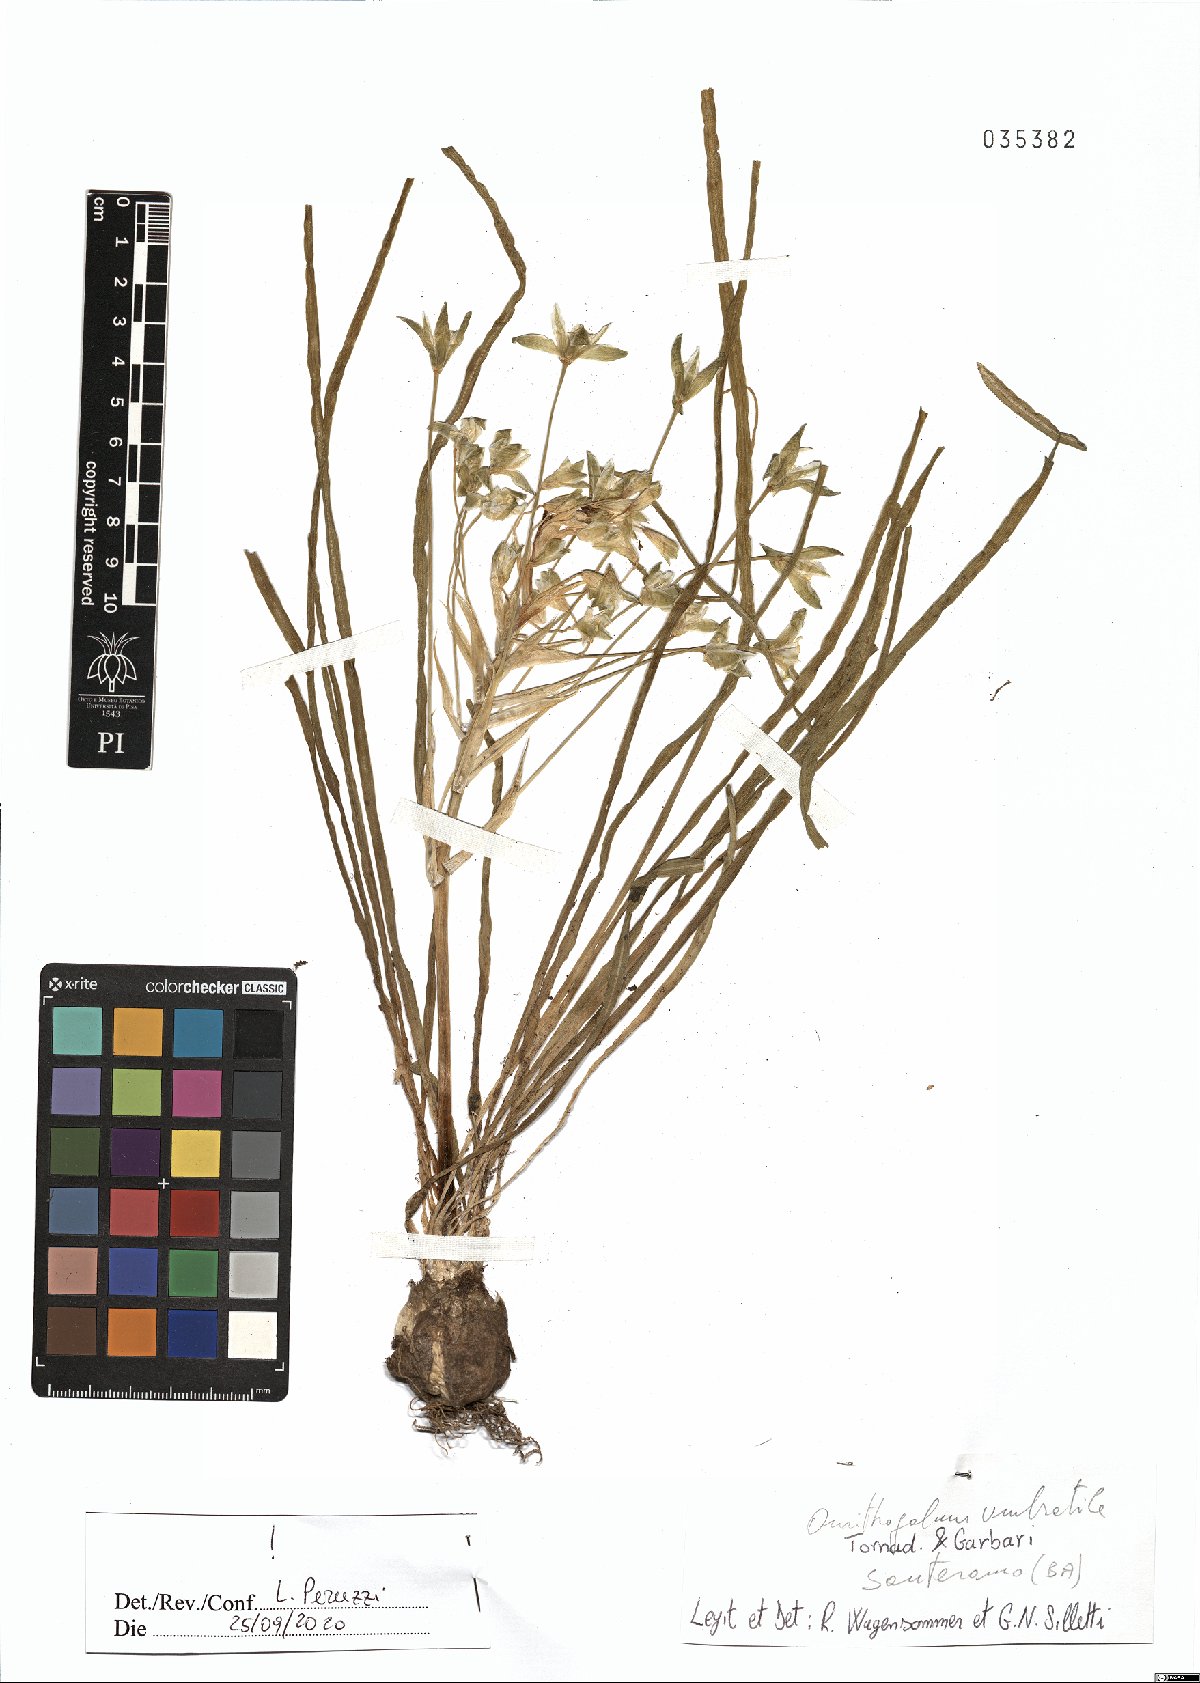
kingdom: Plantae
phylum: Tracheophyta
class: Liliopsida
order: Asparagales
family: Asparagaceae
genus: Ornithogalum
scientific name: Ornithogalum umbratile
